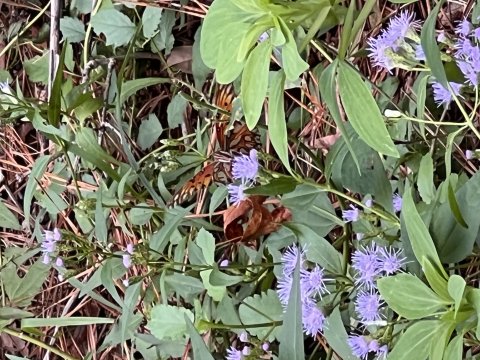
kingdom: Animalia
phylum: Arthropoda
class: Insecta
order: Lepidoptera
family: Nymphalidae
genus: Dione
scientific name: Dione vanillae
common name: Gulf Fritillary
